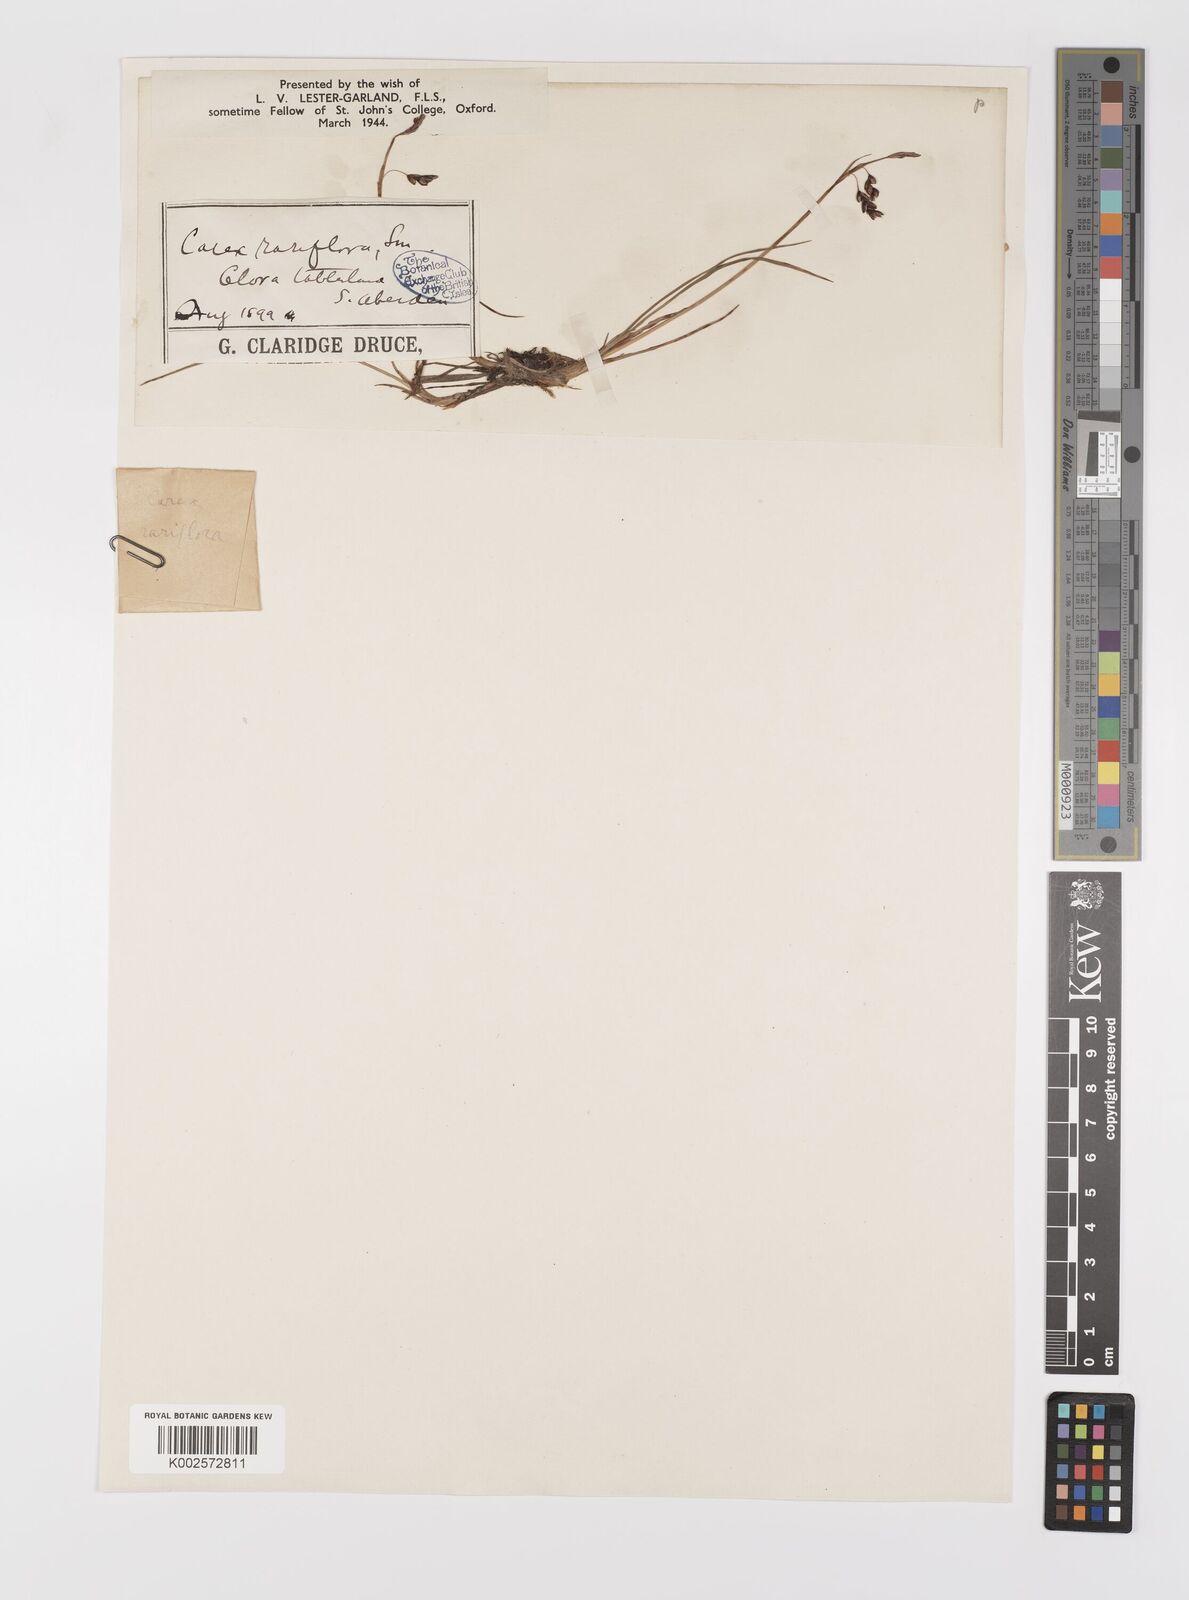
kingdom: Plantae
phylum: Tracheophyta
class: Liliopsida
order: Poales
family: Cyperaceae
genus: Carex
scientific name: Carex rariflora
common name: Loose-flowered alpine sedge
